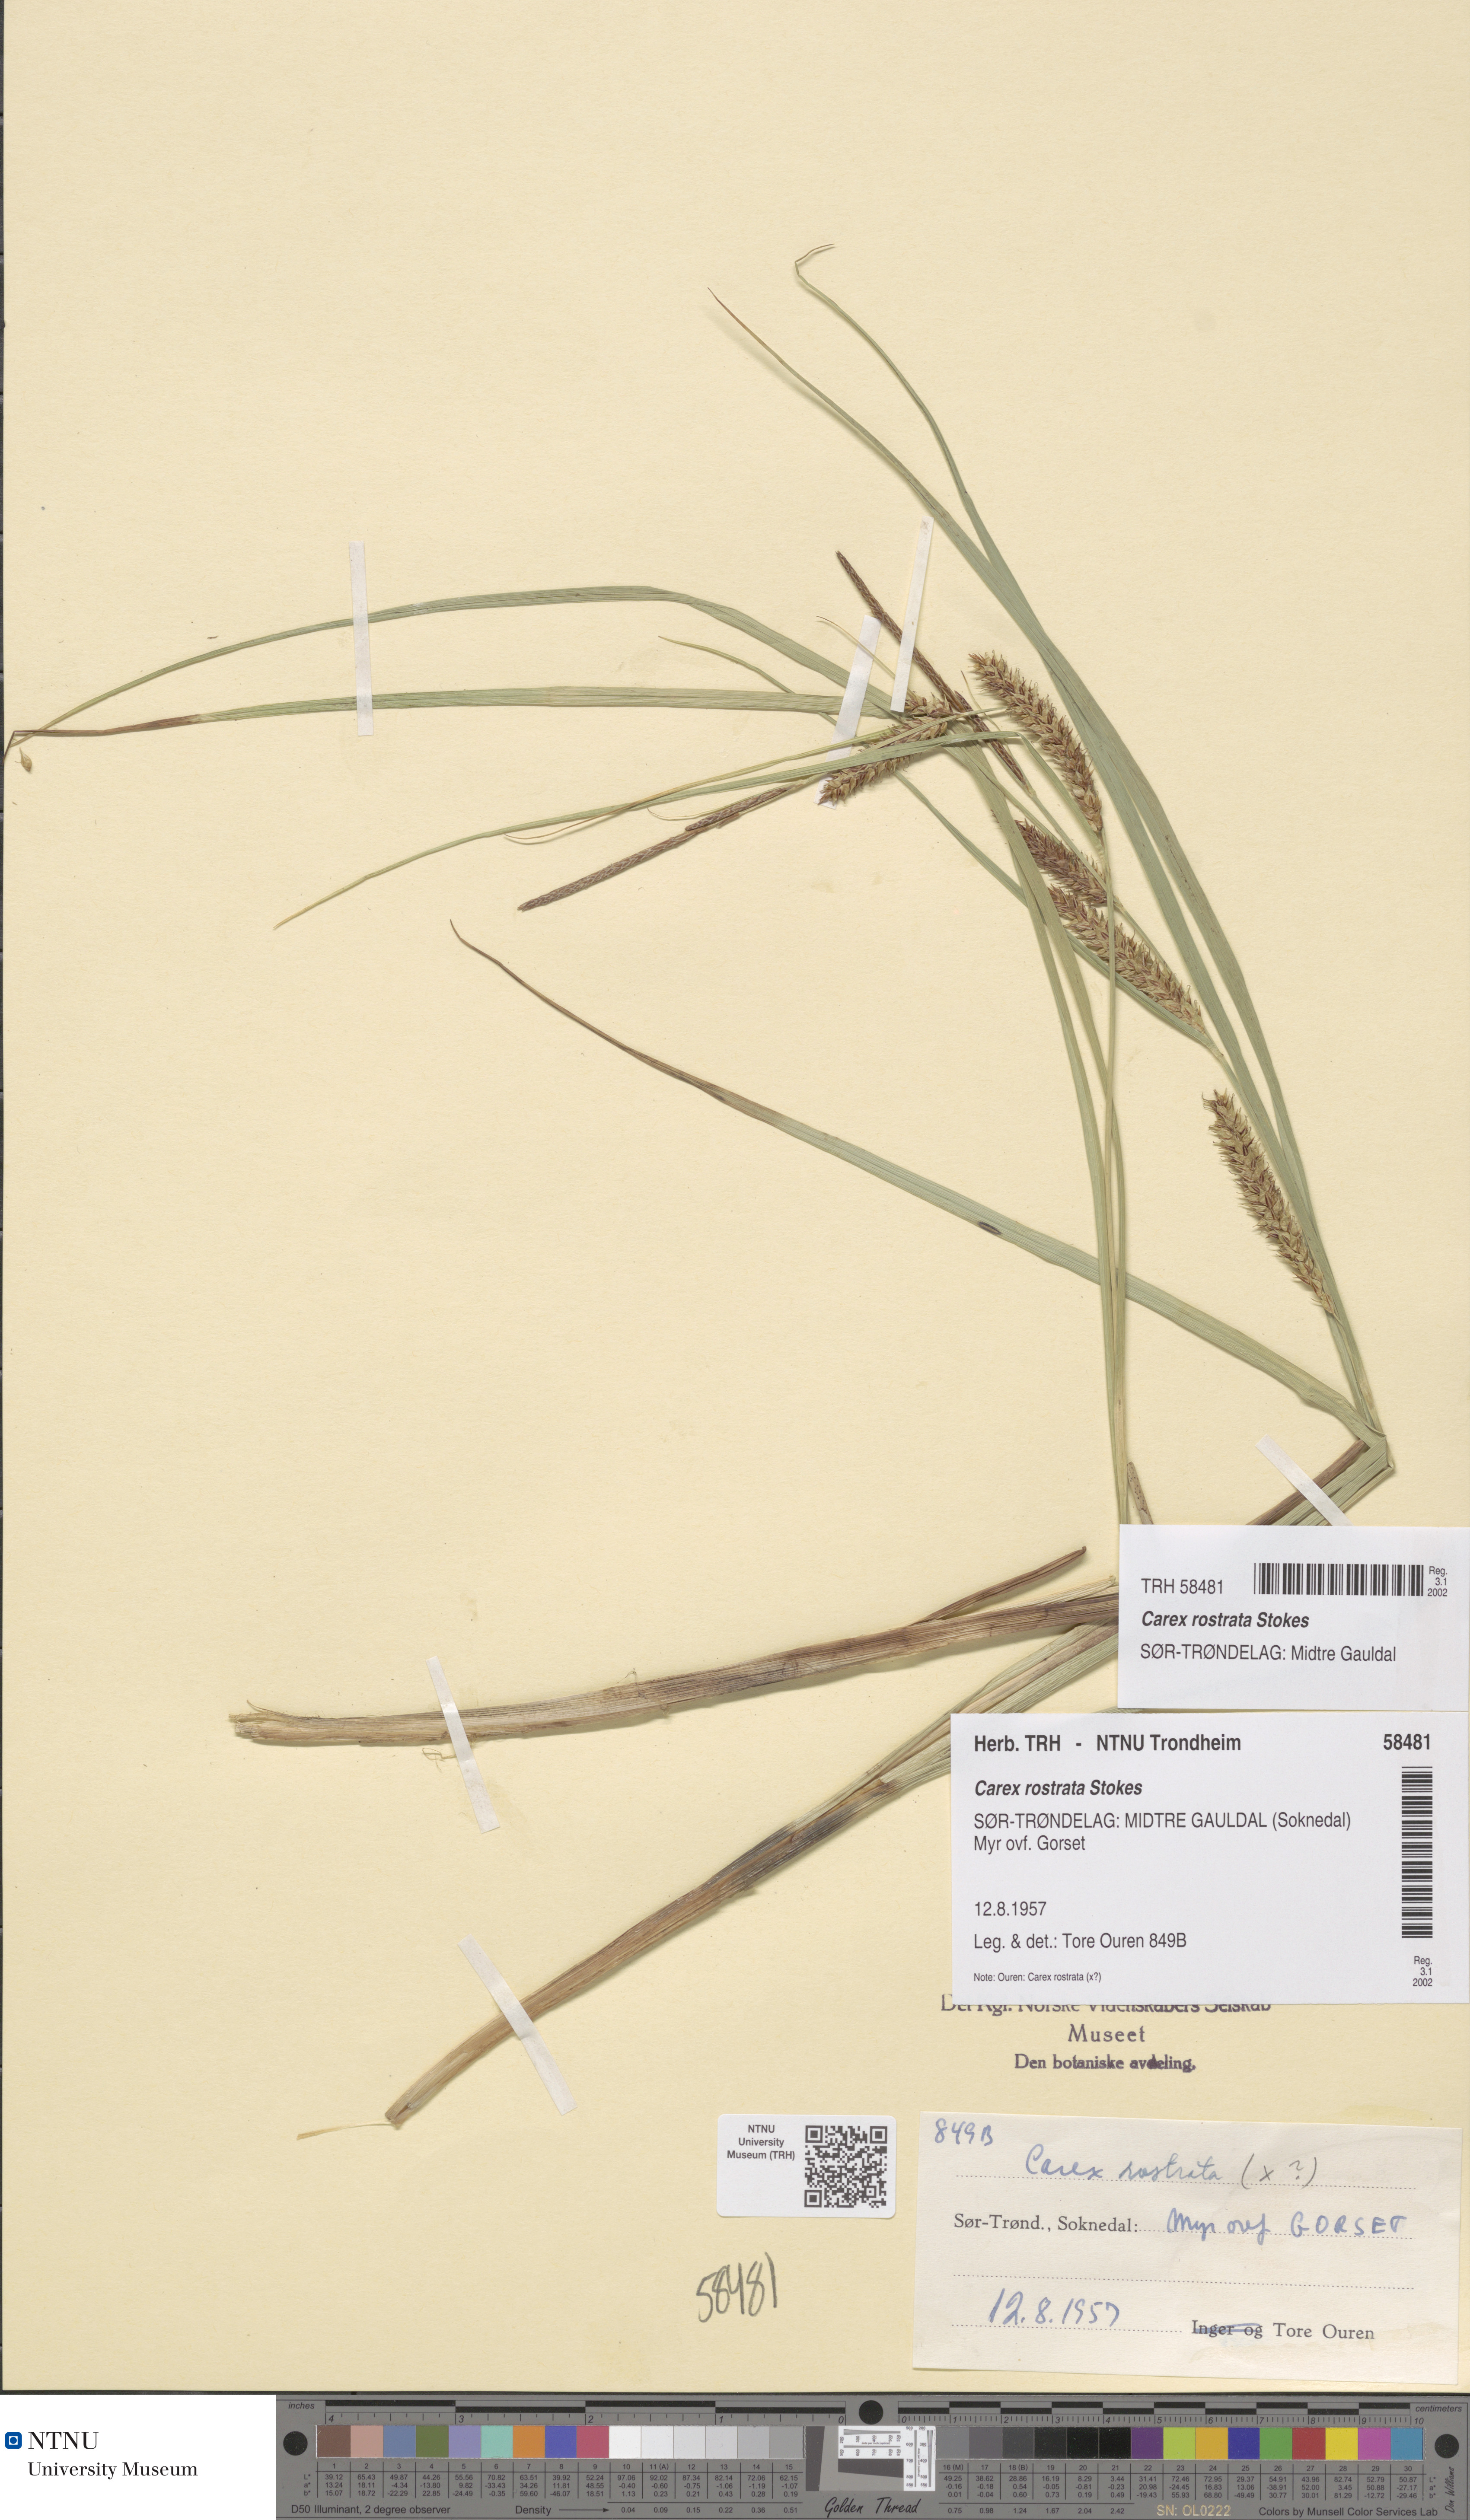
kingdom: Plantae
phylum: Tracheophyta
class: Liliopsida
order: Poales
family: Cyperaceae
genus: Carex
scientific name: Carex rostrata
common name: Bottle sedge
